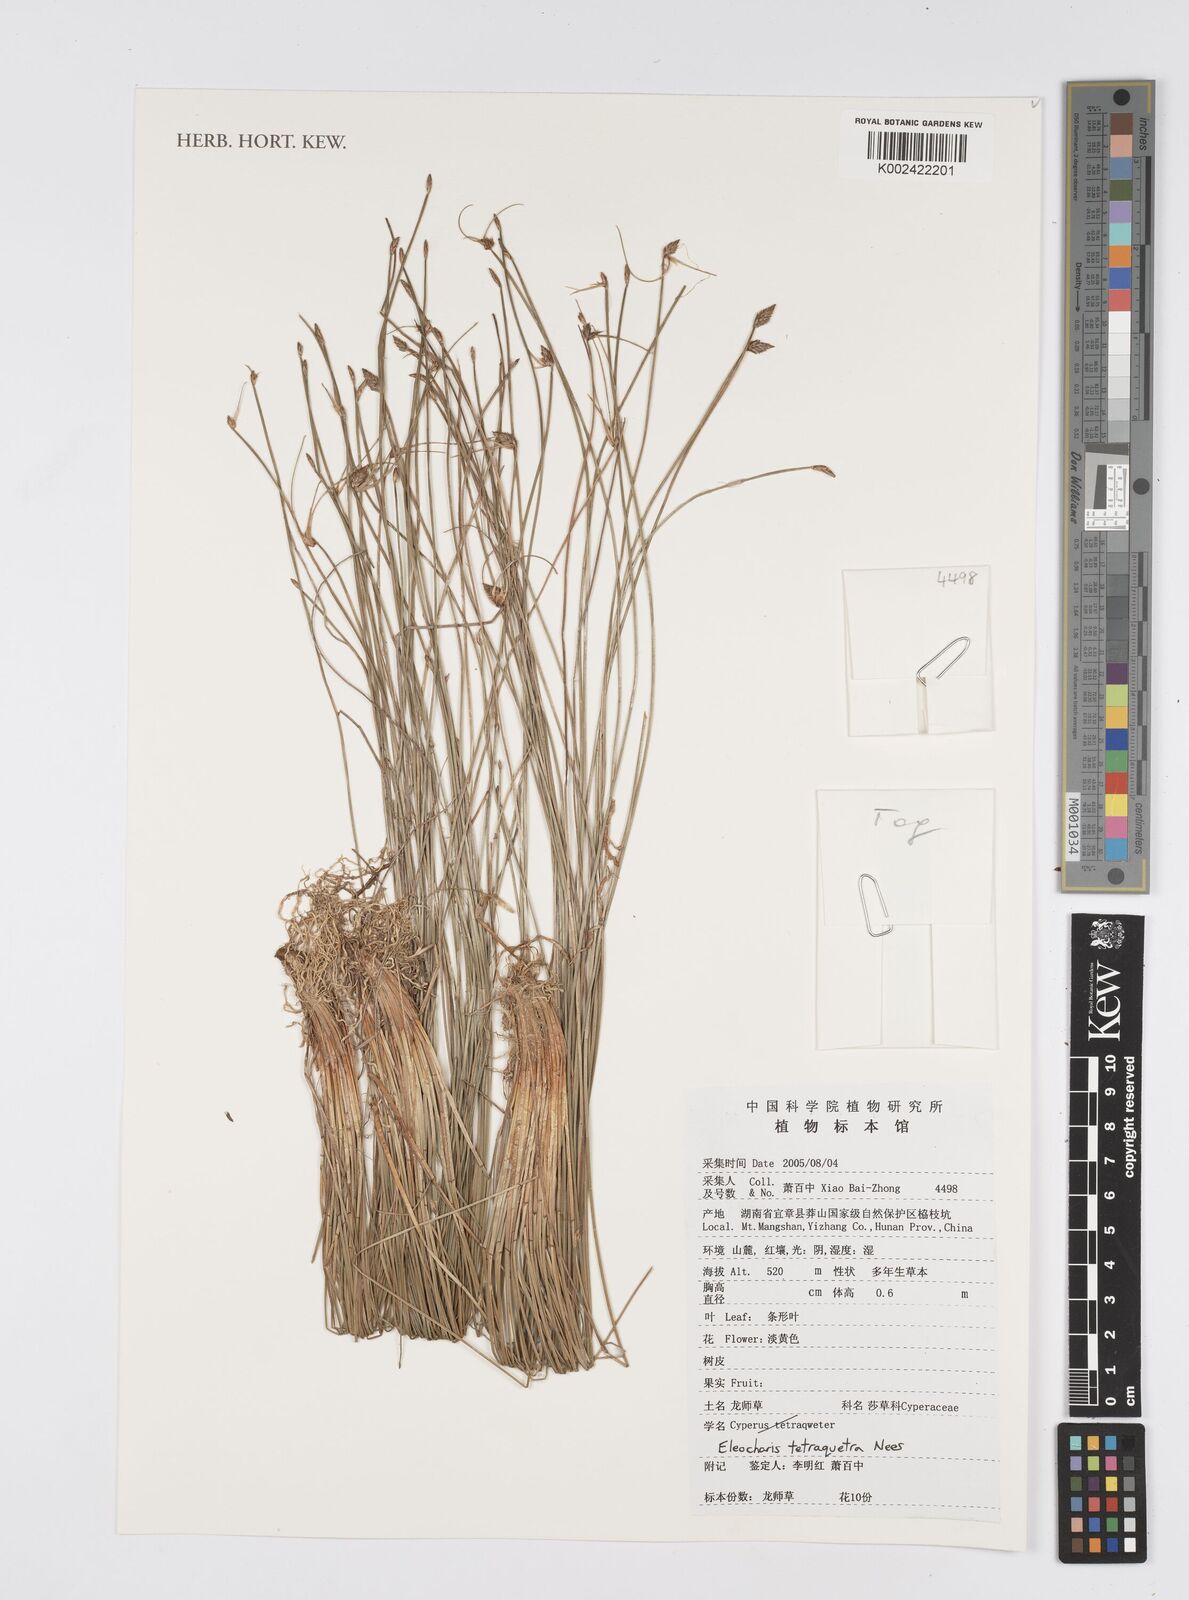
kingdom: Plantae
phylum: Tracheophyta
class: Liliopsida
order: Poales
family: Cyperaceae
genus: Eleocharis
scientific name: Eleocharis tetraquetra
